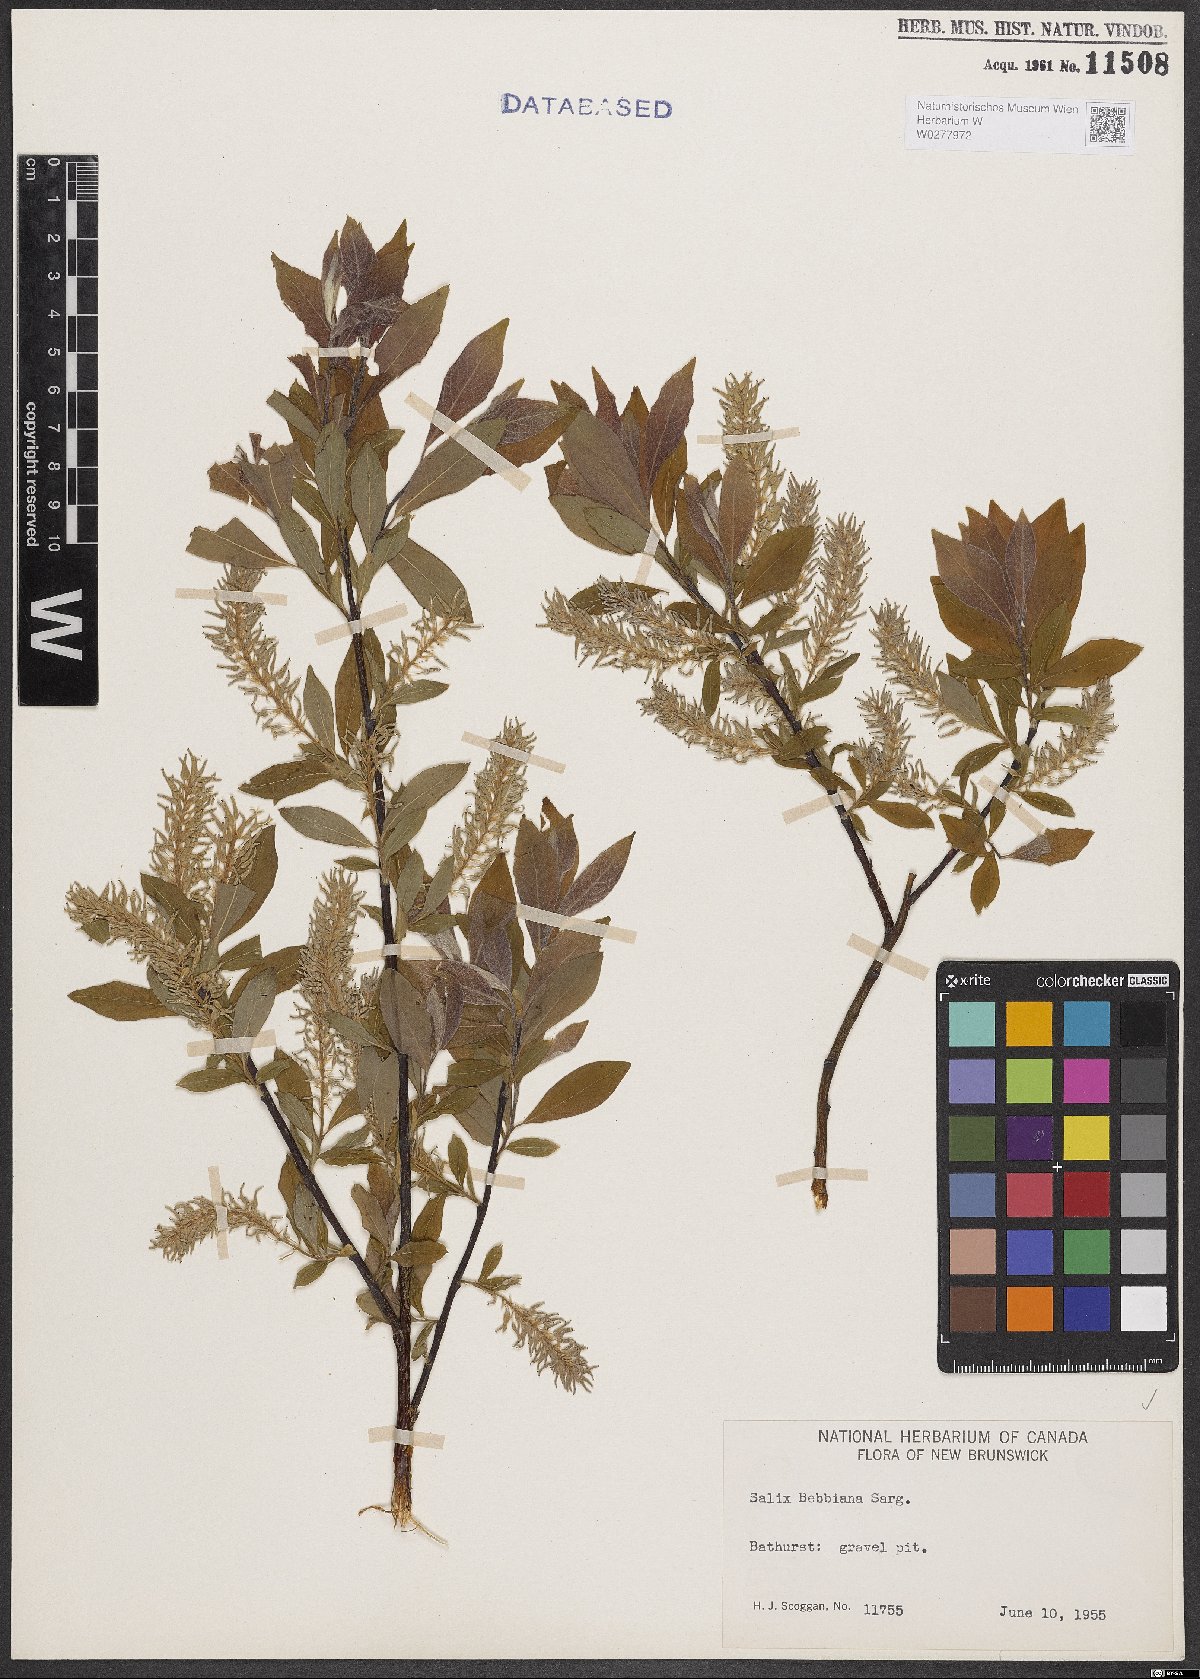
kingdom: Plantae
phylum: Tracheophyta
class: Magnoliopsida
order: Malpighiales
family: Salicaceae
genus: Salix
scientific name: Salix bebbiana
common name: Bebb's willow
